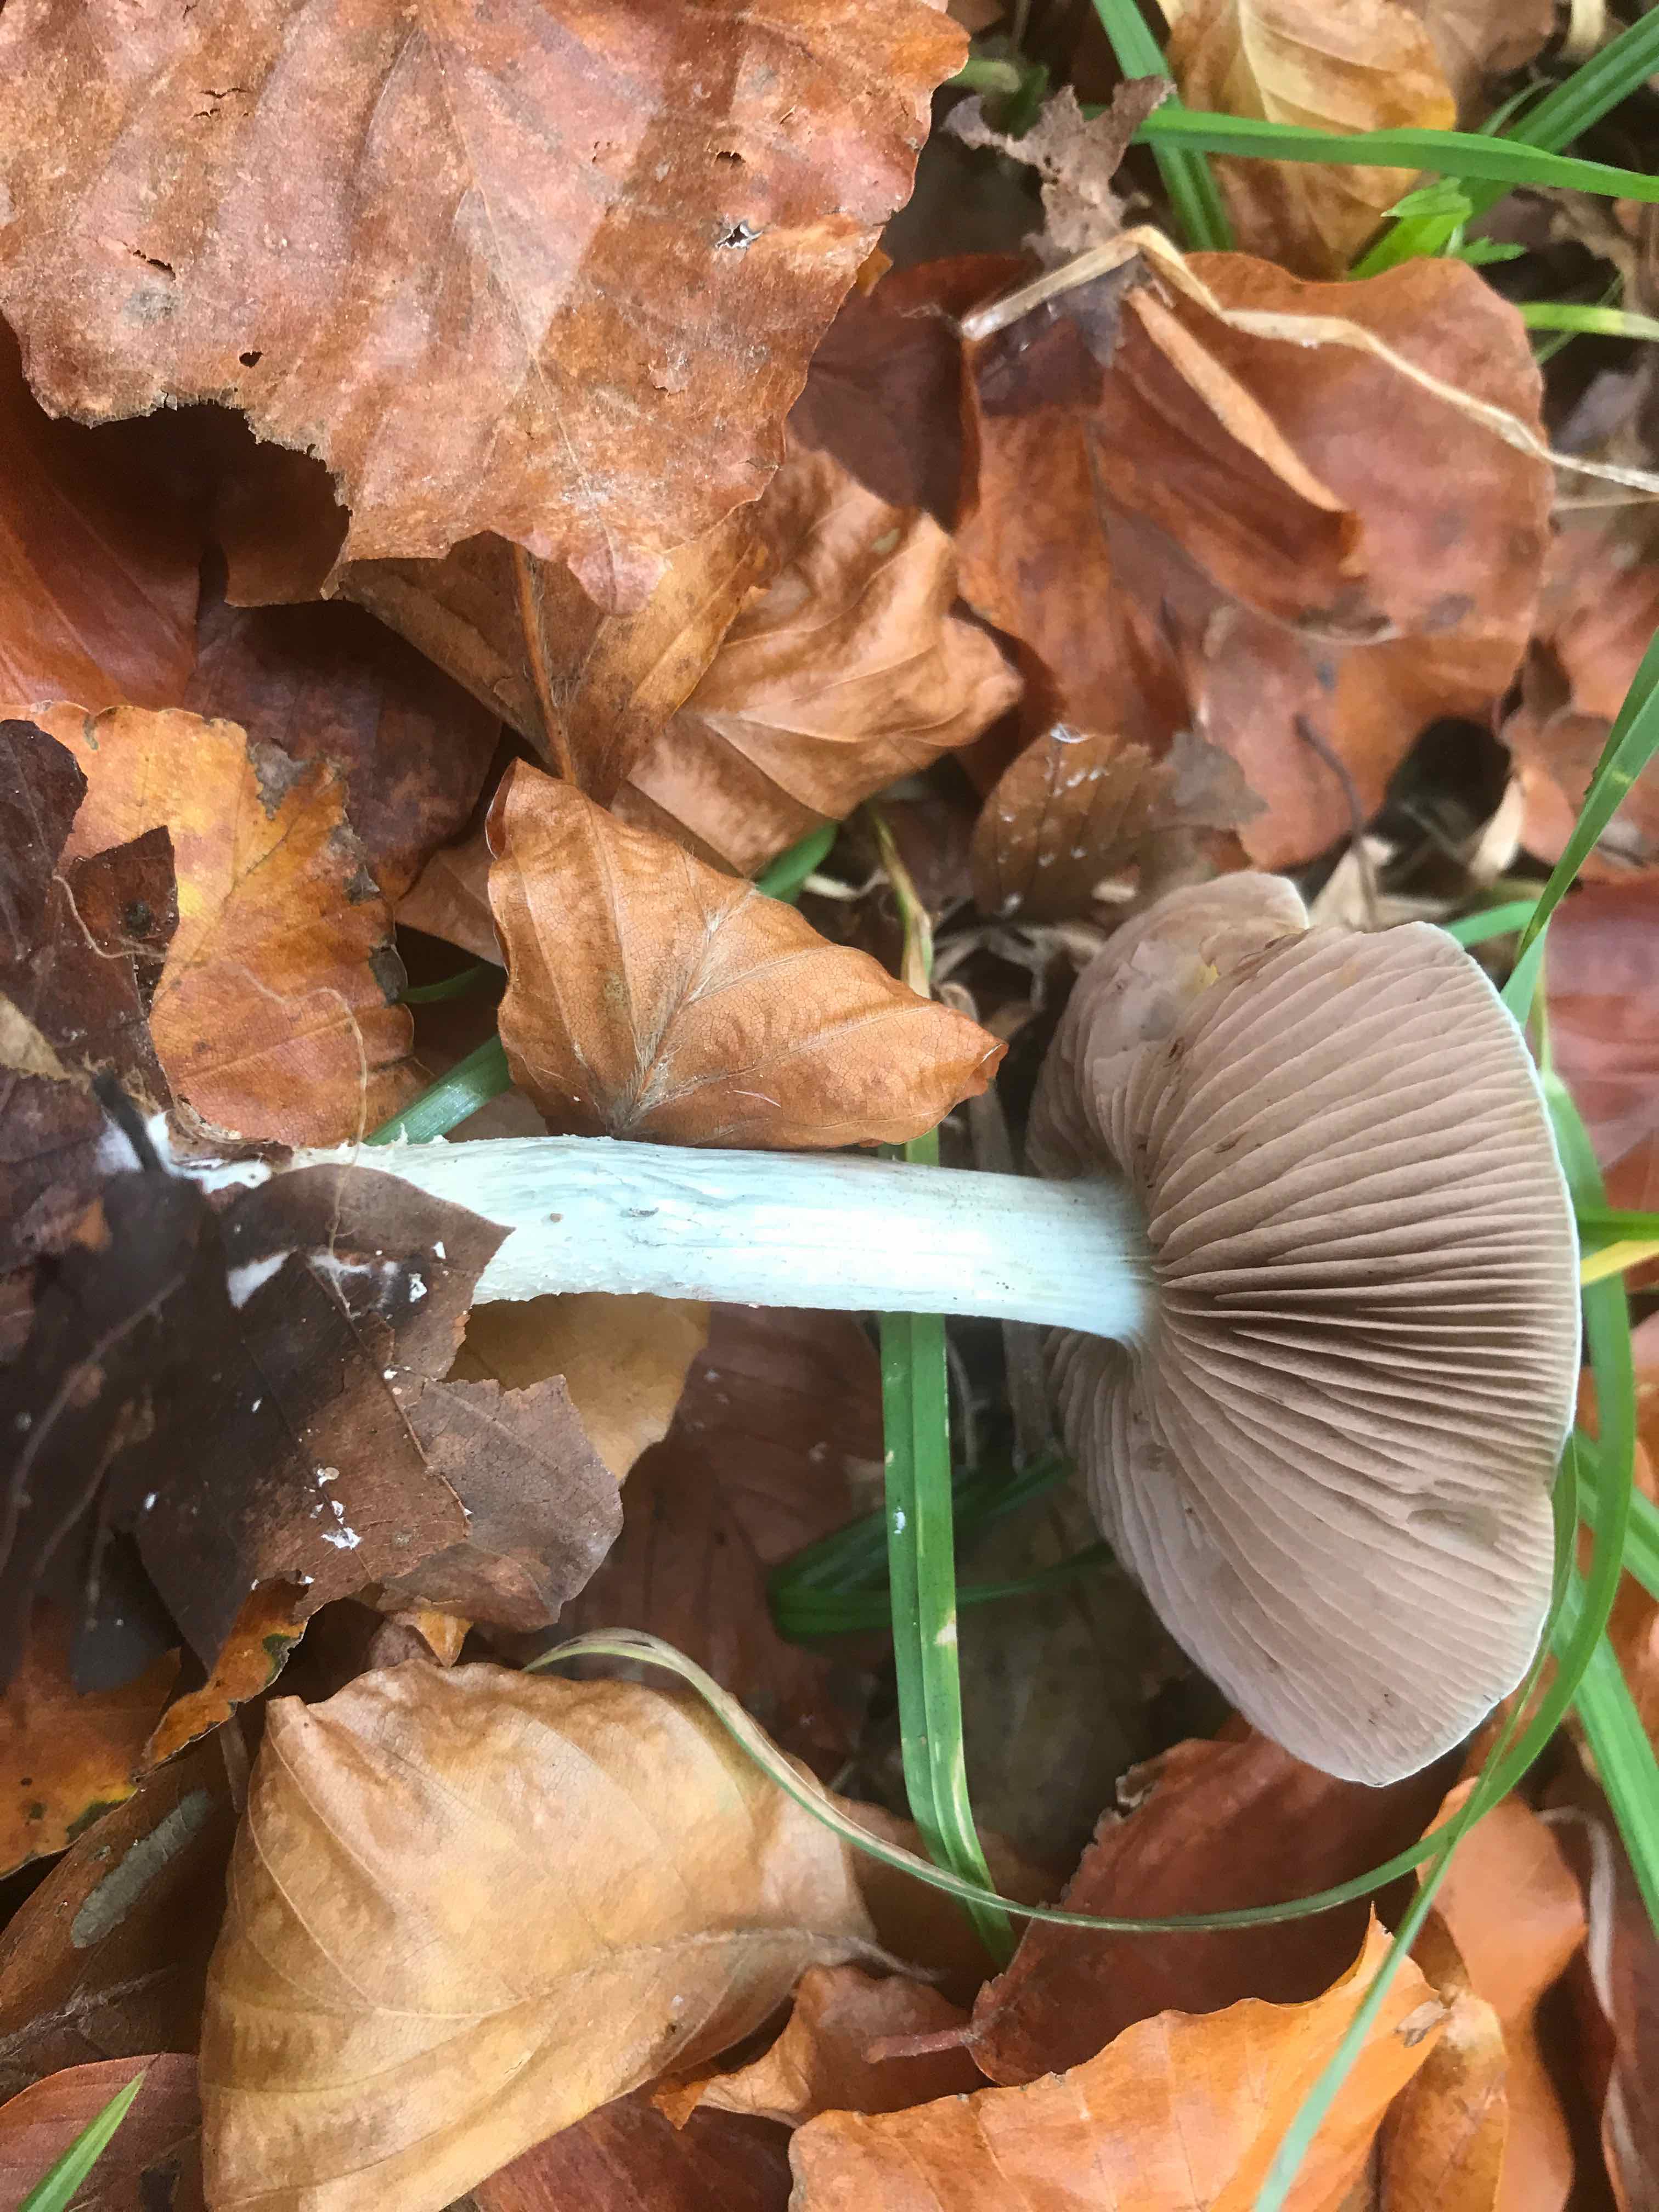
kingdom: Fungi
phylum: Basidiomycota
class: Agaricomycetes
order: Agaricales
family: Strophariaceae
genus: Stropharia
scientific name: Stropharia cyanea
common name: blågrøn bredblad
